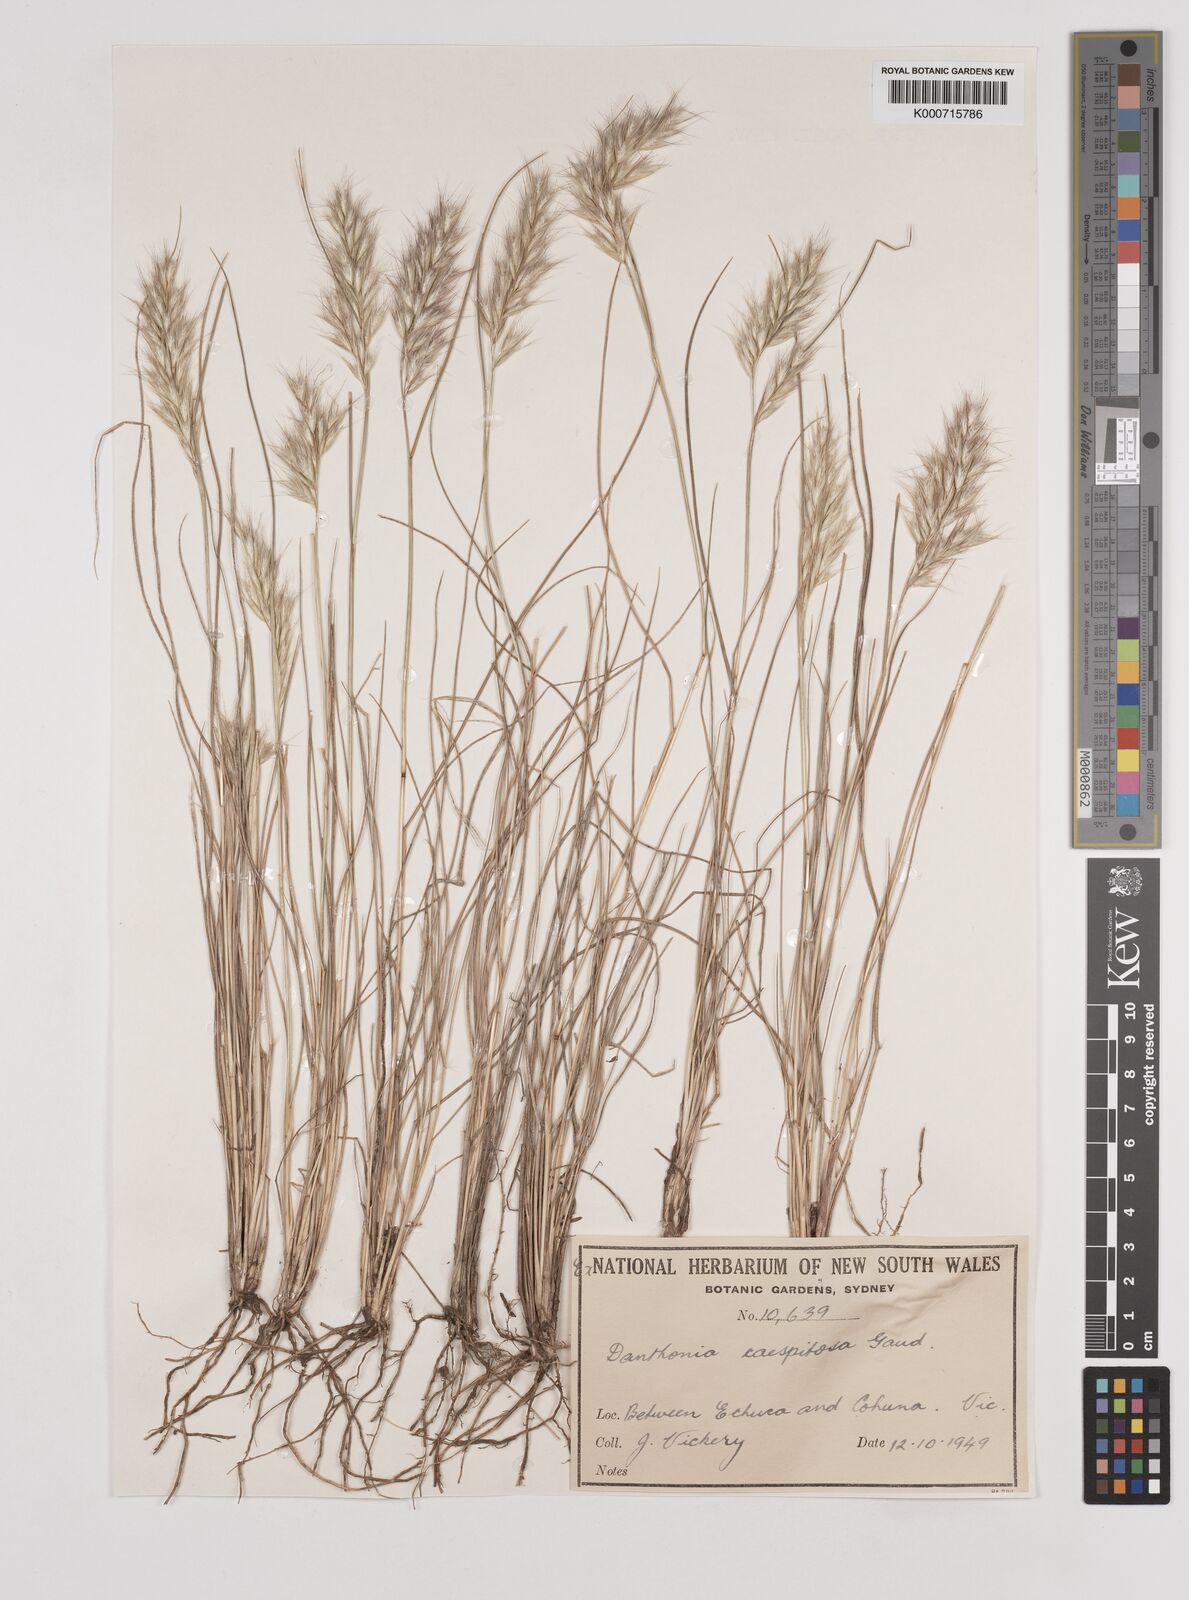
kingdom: Plantae
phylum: Tracheophyta
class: Liliopsida
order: Poales
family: Poaceae
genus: Rytidosperma
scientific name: Rytidosperma caespitosum
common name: Tufted wallaby grass
